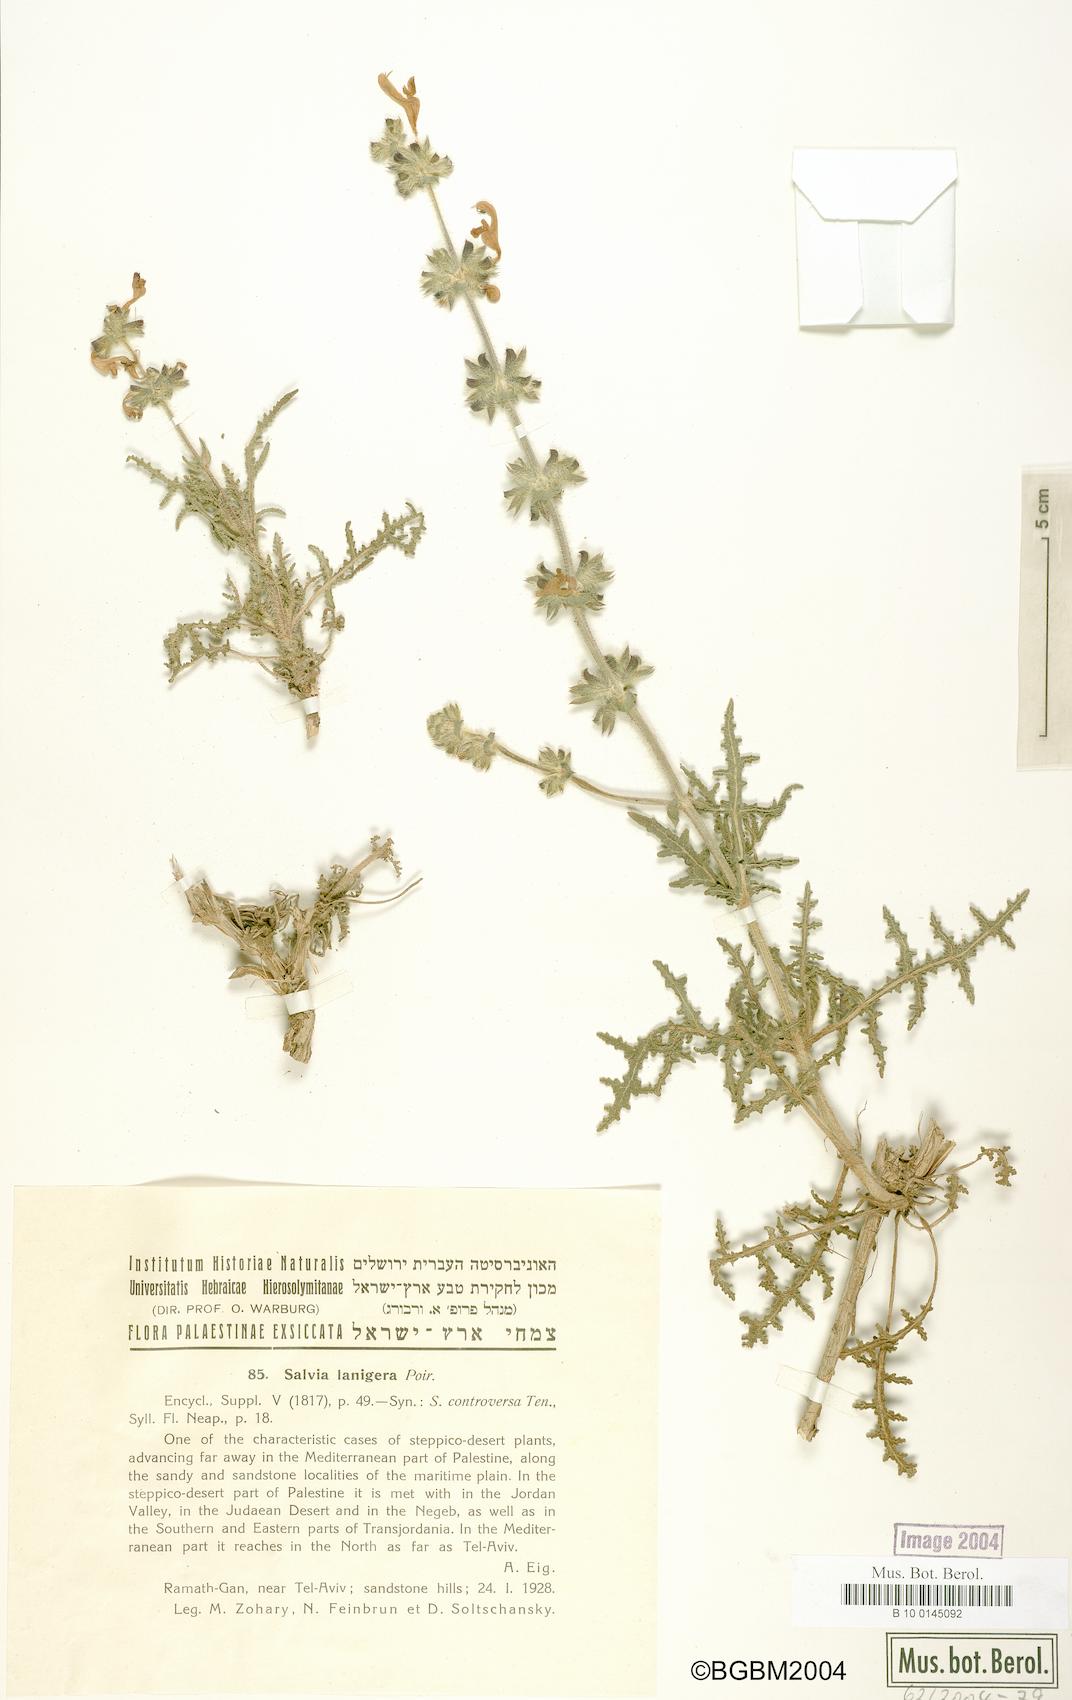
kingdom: Plantae
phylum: Tracheophyta
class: Magnoliopsida
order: Lamiales
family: Lamiaceae
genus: Salvia
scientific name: Salvia lanigera
